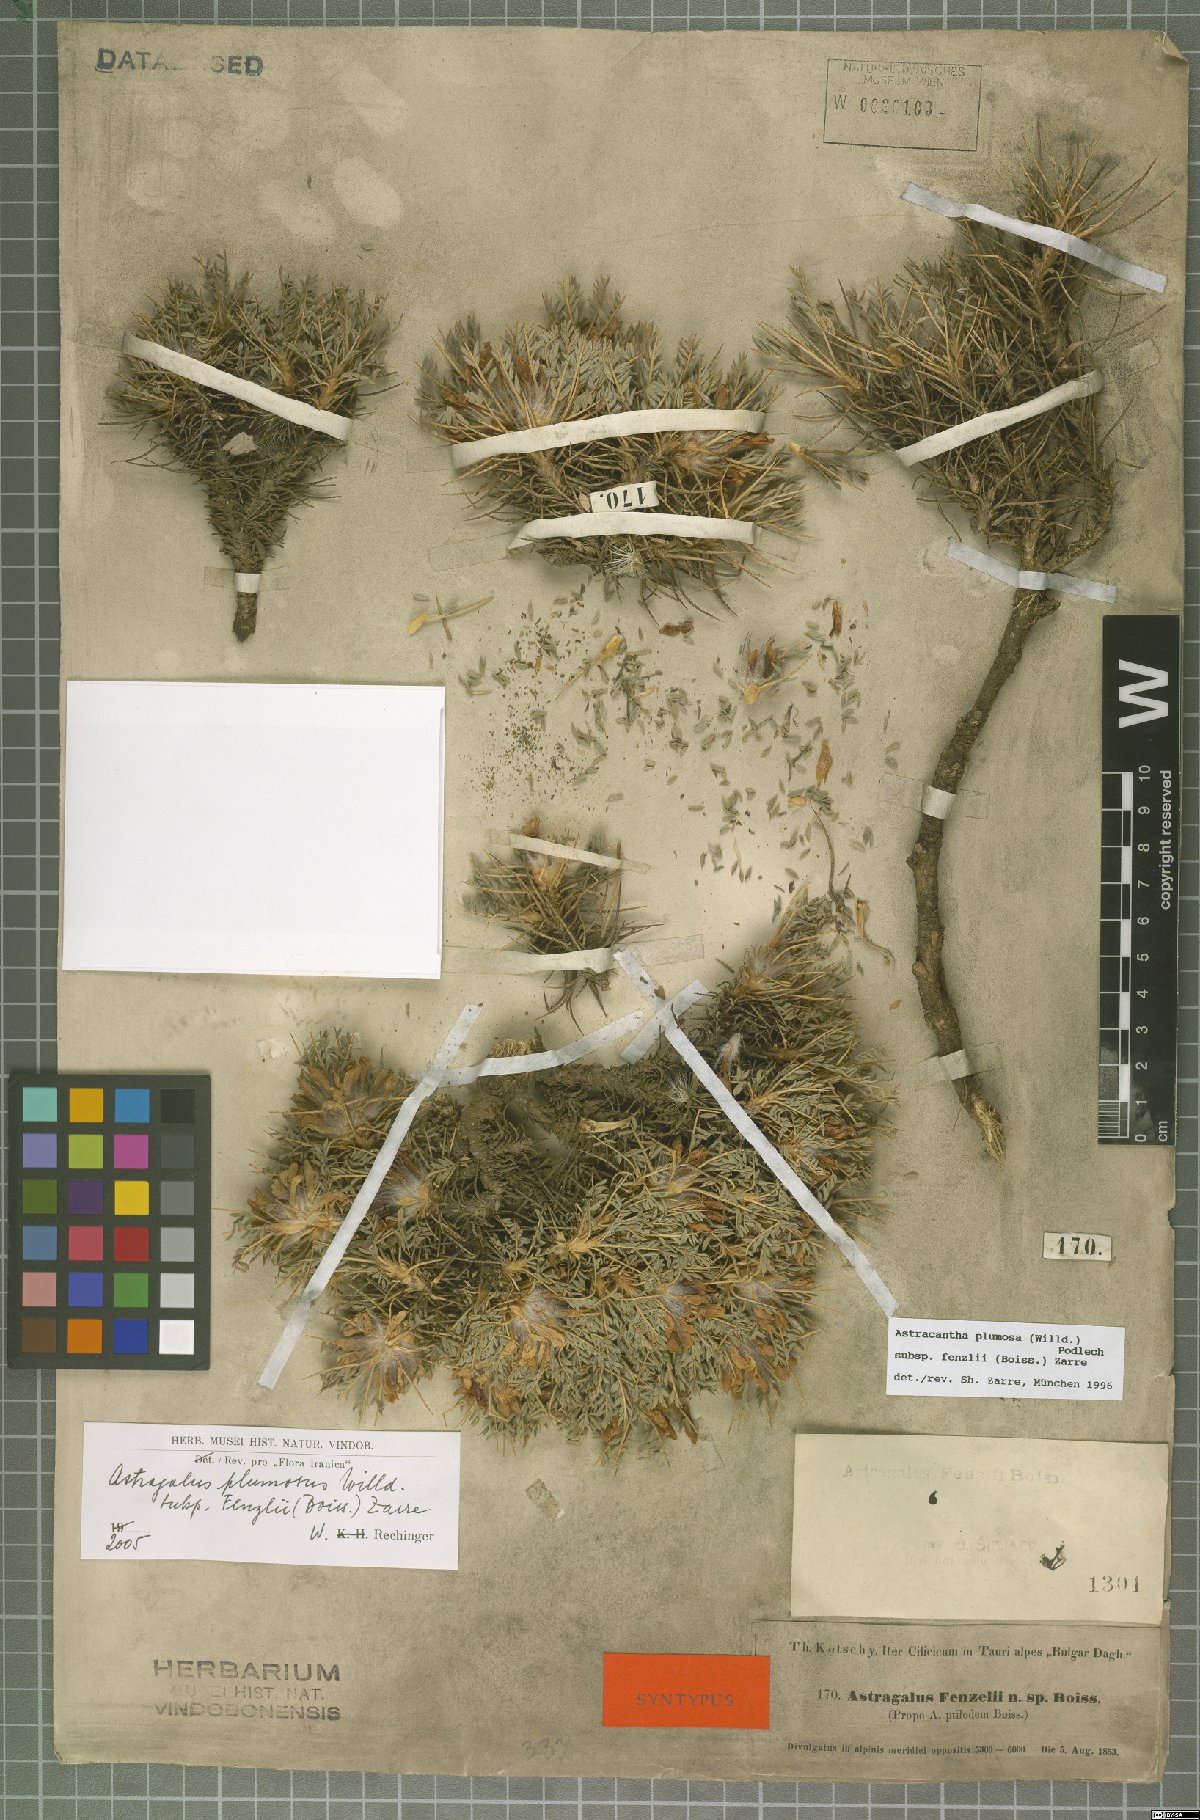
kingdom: Plantae
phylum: Tracheophyta
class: Magnoliopsida
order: Fabales
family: Fabaceae
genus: Astragalus
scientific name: Astragalus plumosus
